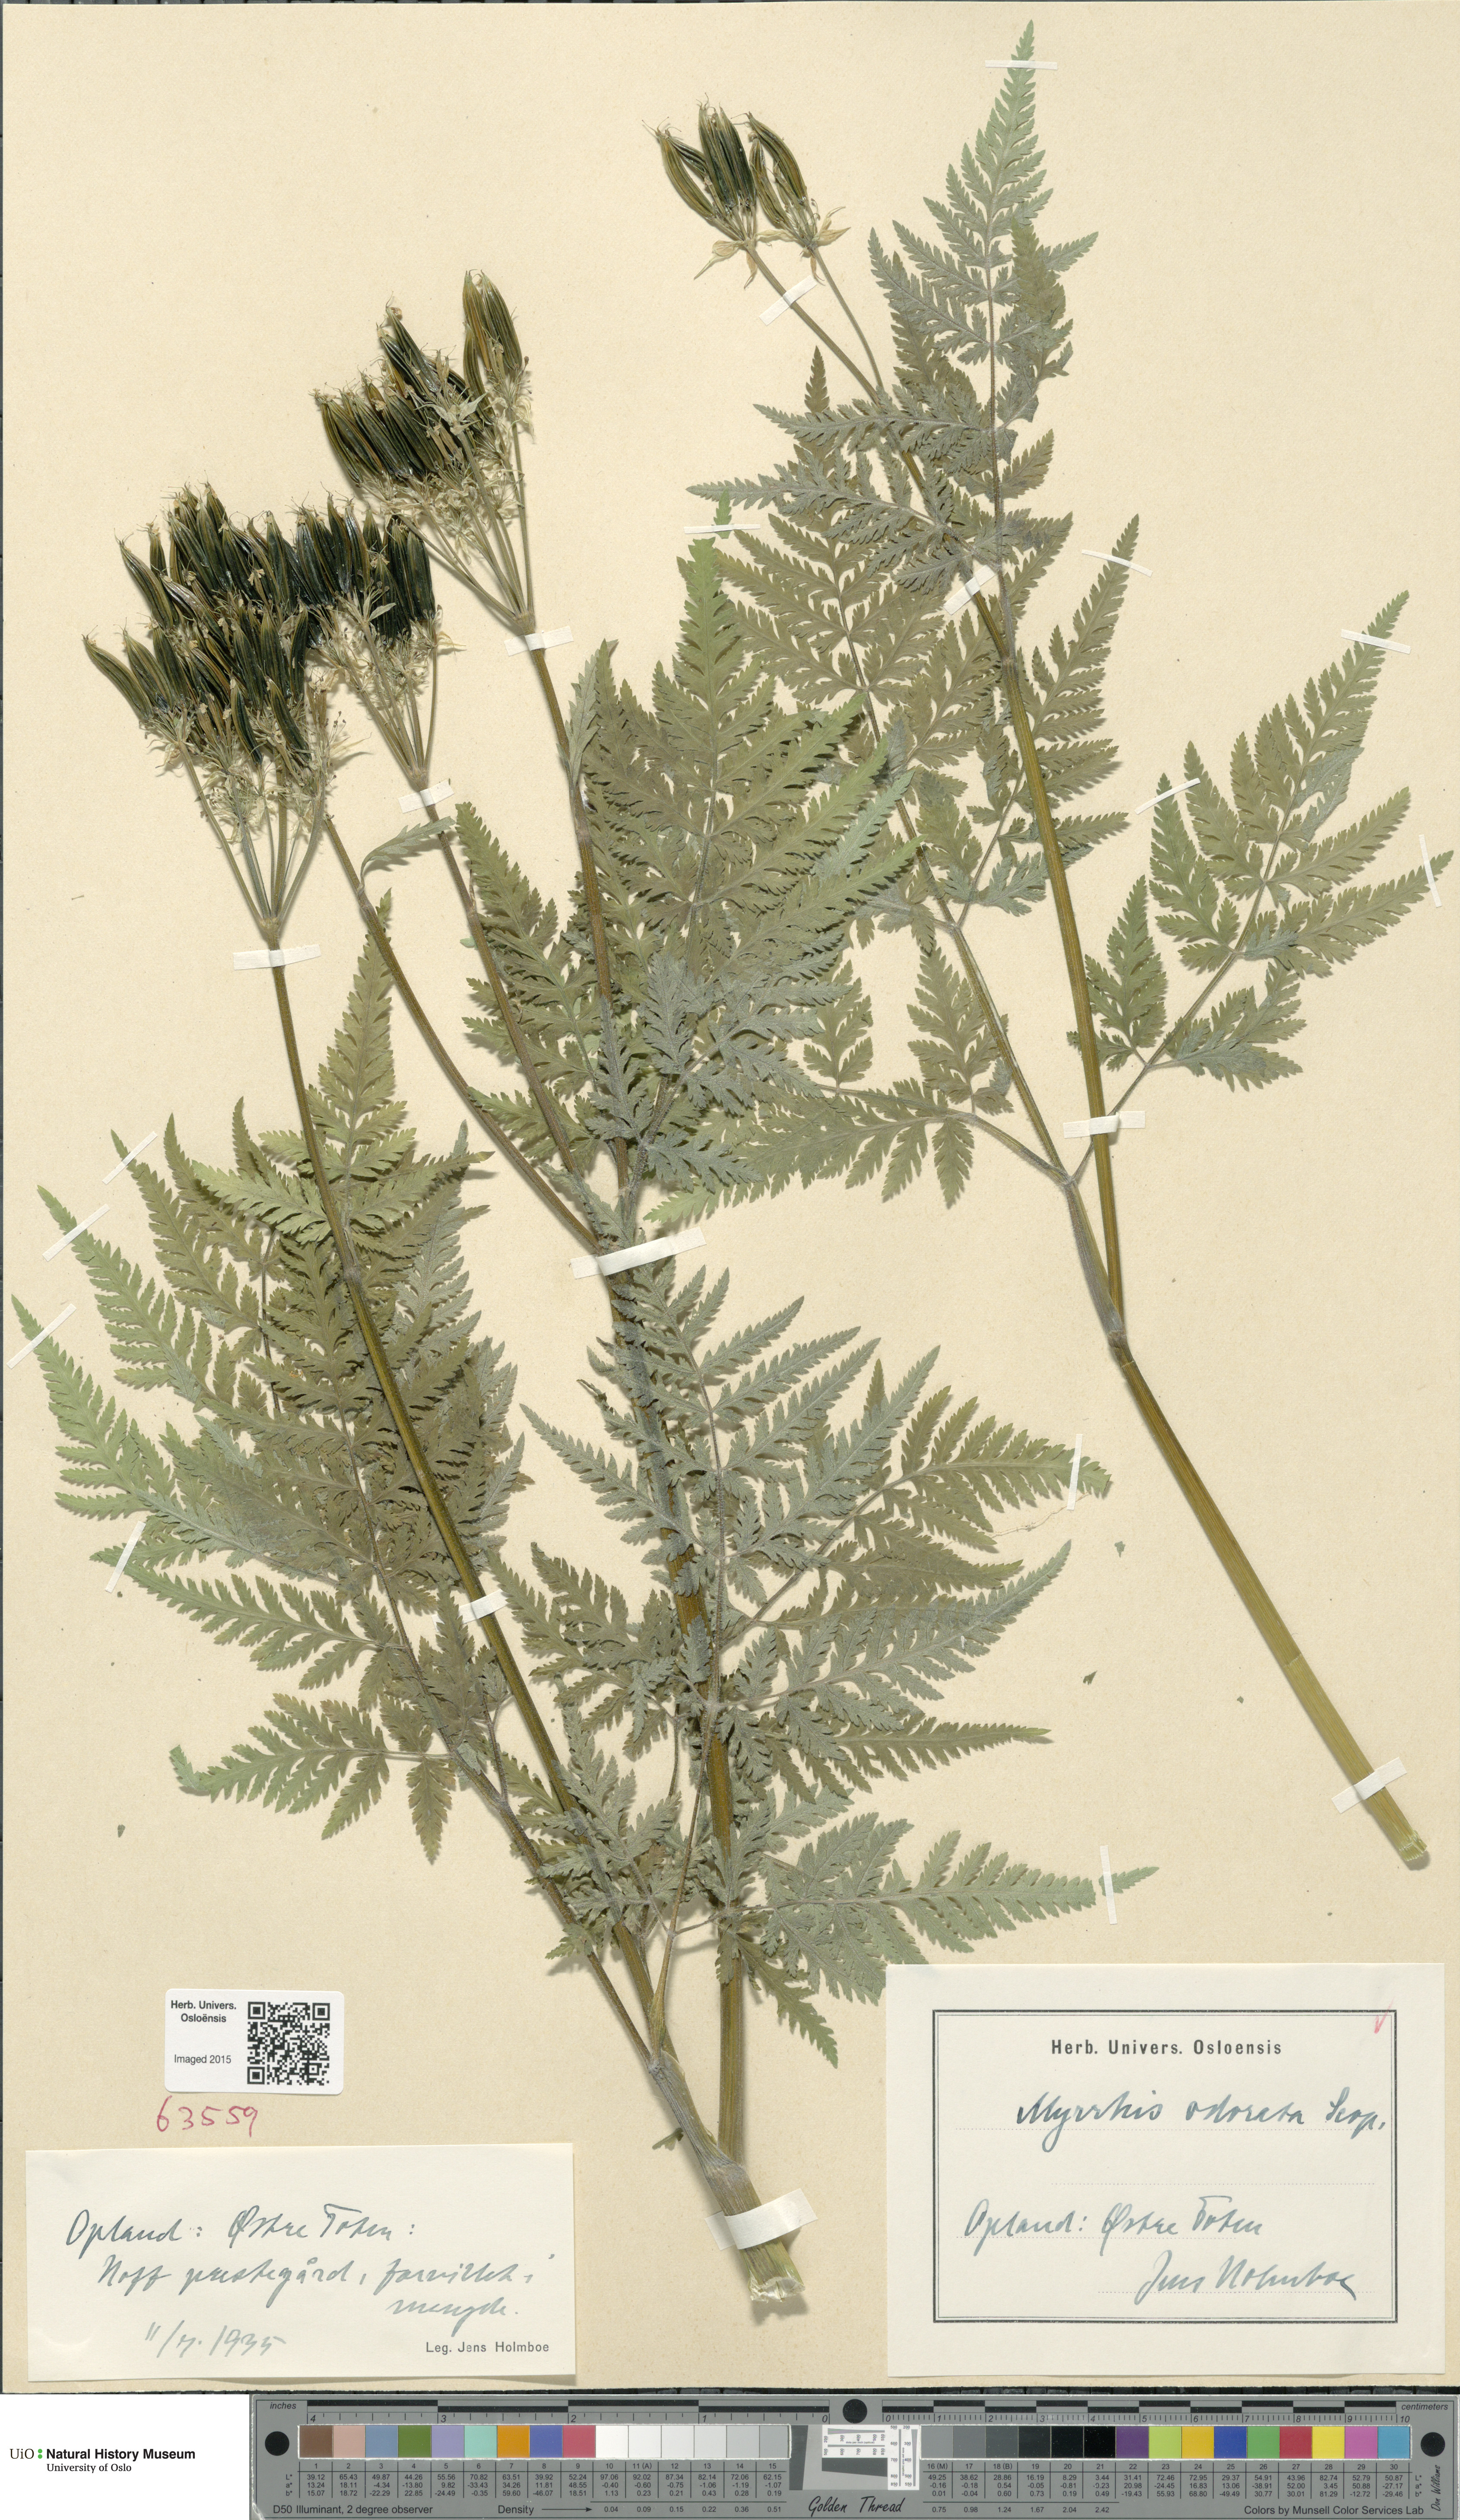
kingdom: Plantae
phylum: Tracheophyta
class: Magnoliopsida
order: Apiales
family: Apiaceae
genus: Myrrhis
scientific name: Myrrhis odorata
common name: Sweet cicely
